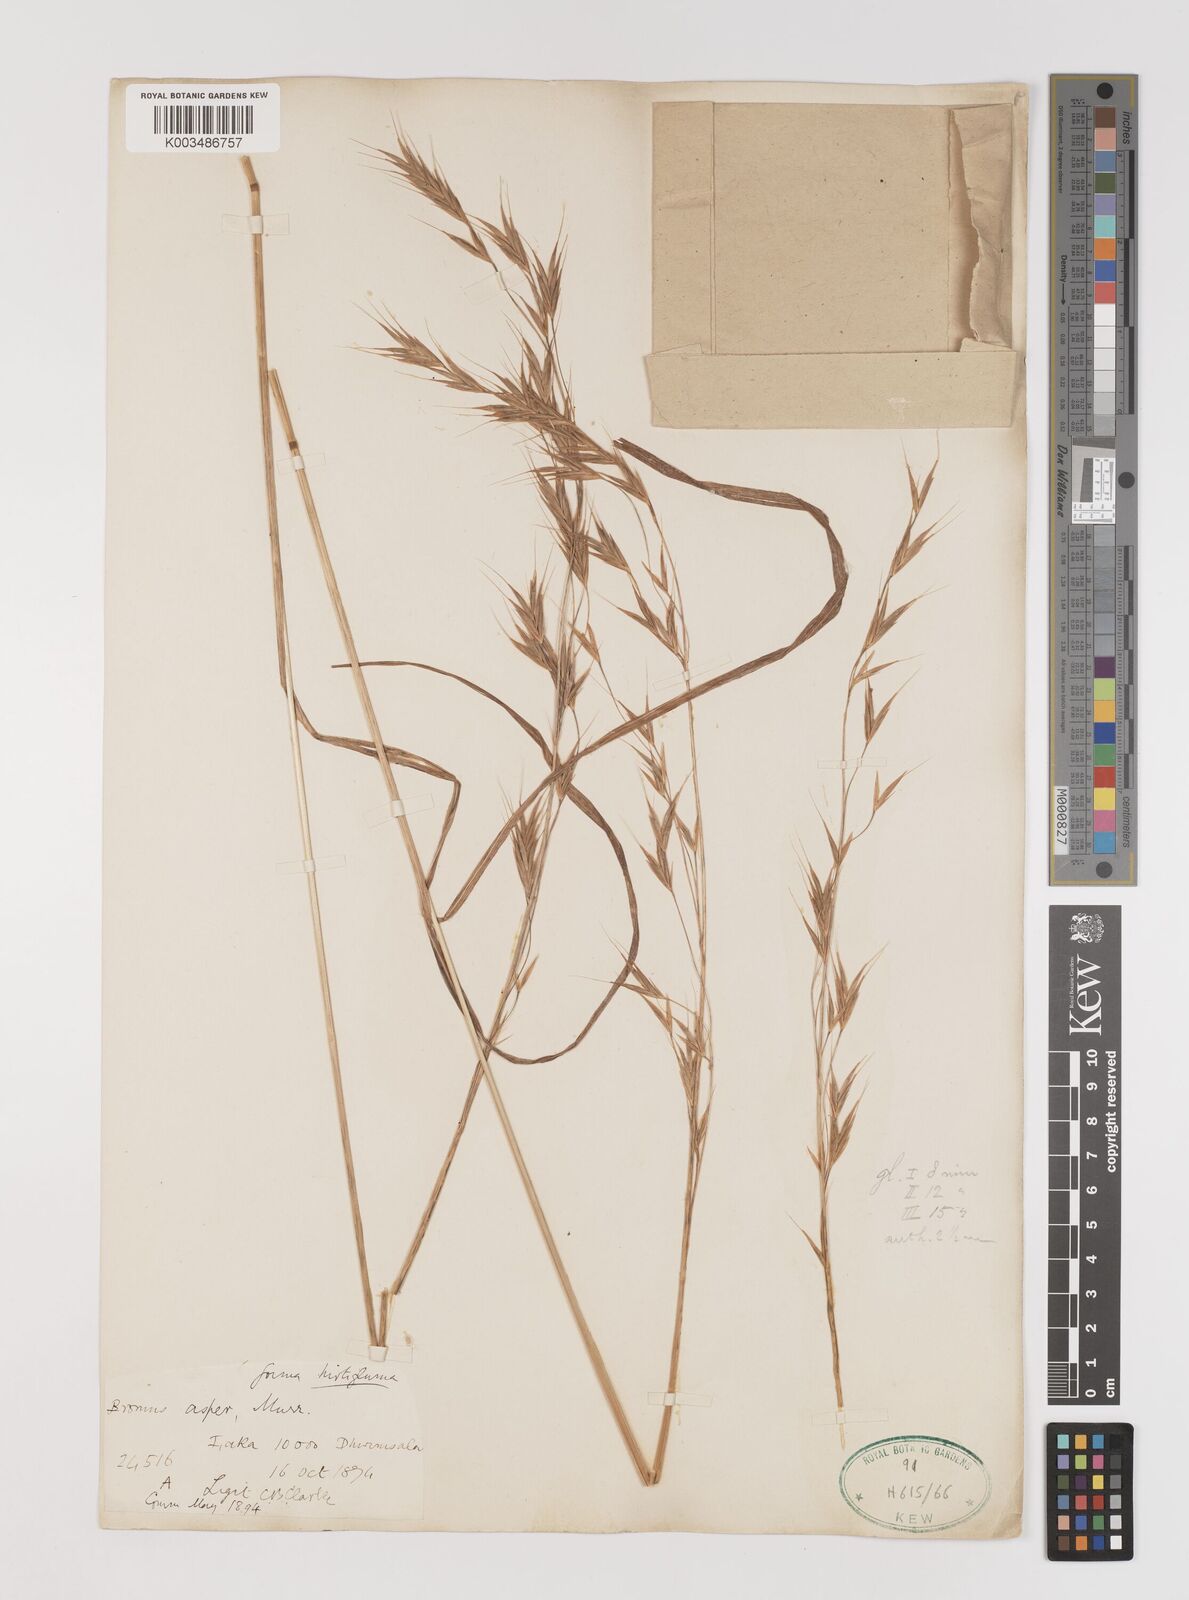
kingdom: Plantae
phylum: Tracheophyta
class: Liliopsida
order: Poales
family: Poaceae
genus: Brachypodium
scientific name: Brachypodium retusum
